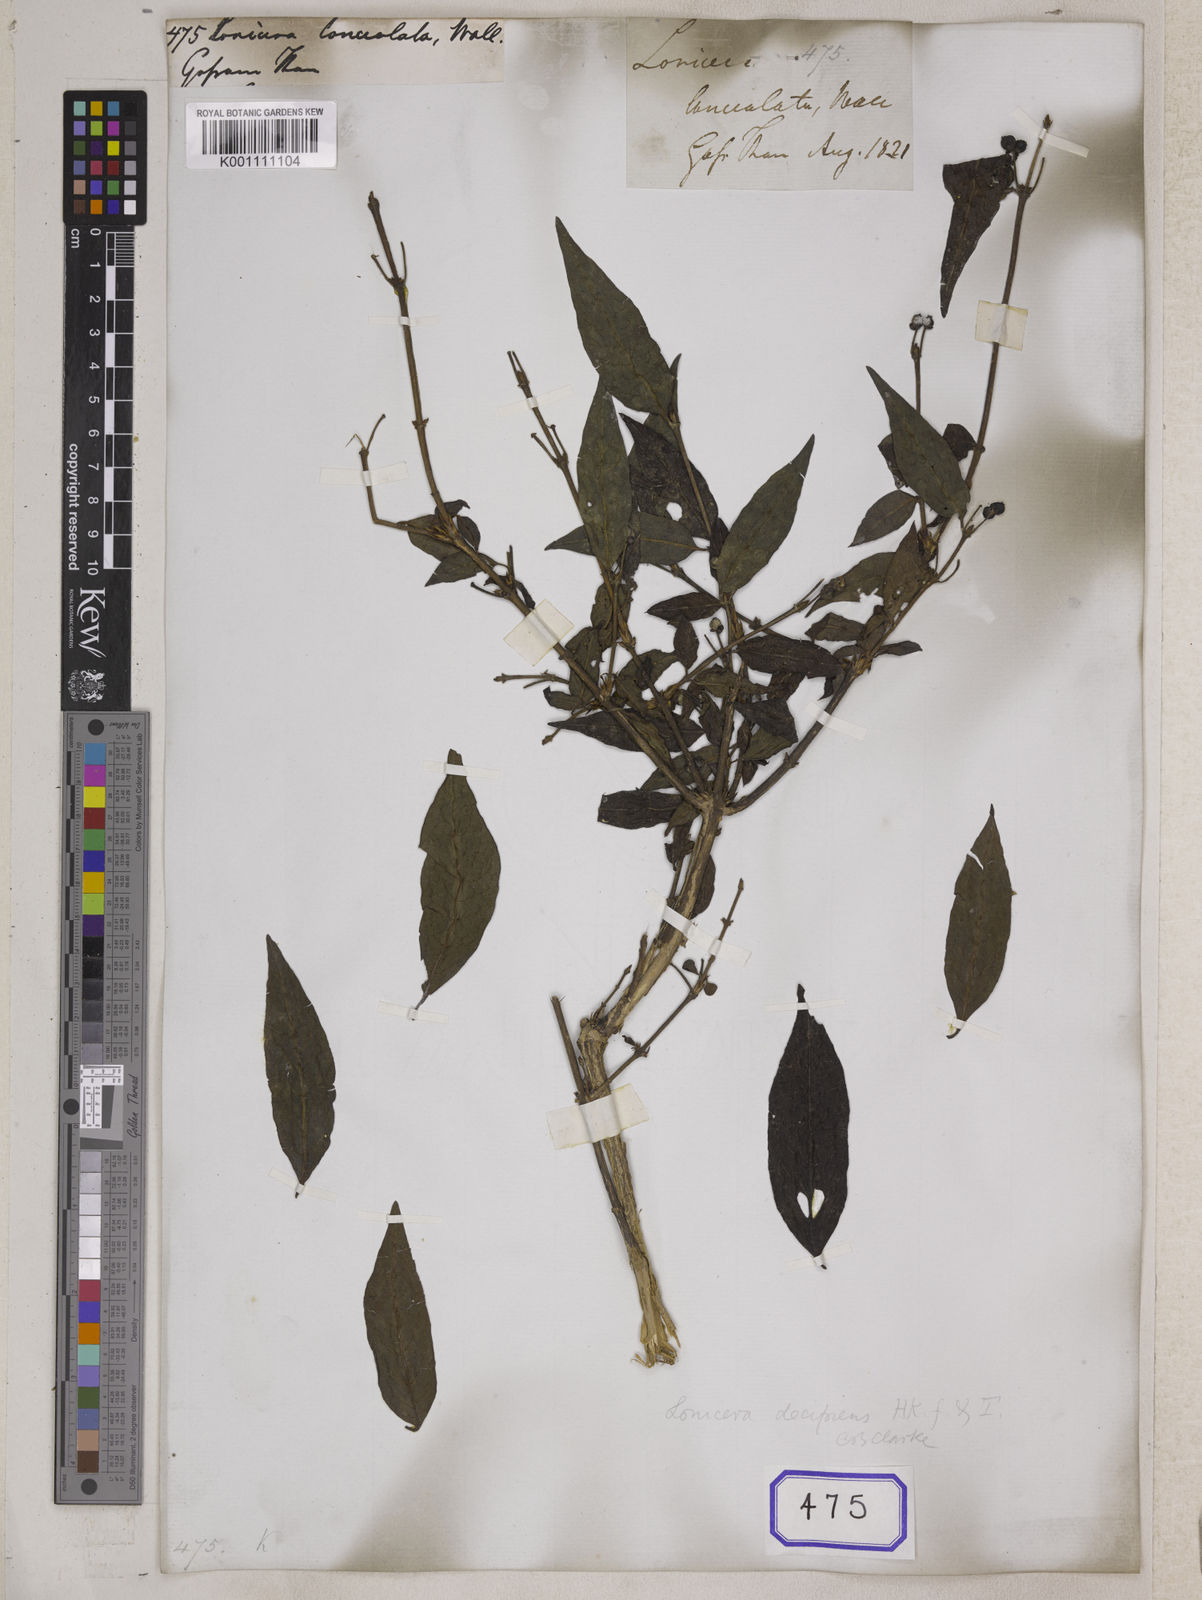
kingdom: Plantae
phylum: Tracheophyta
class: Magnoliopsida
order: Dipsacales
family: Caprifoliaceae
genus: Lonicera
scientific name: Lonicera lanceolata
